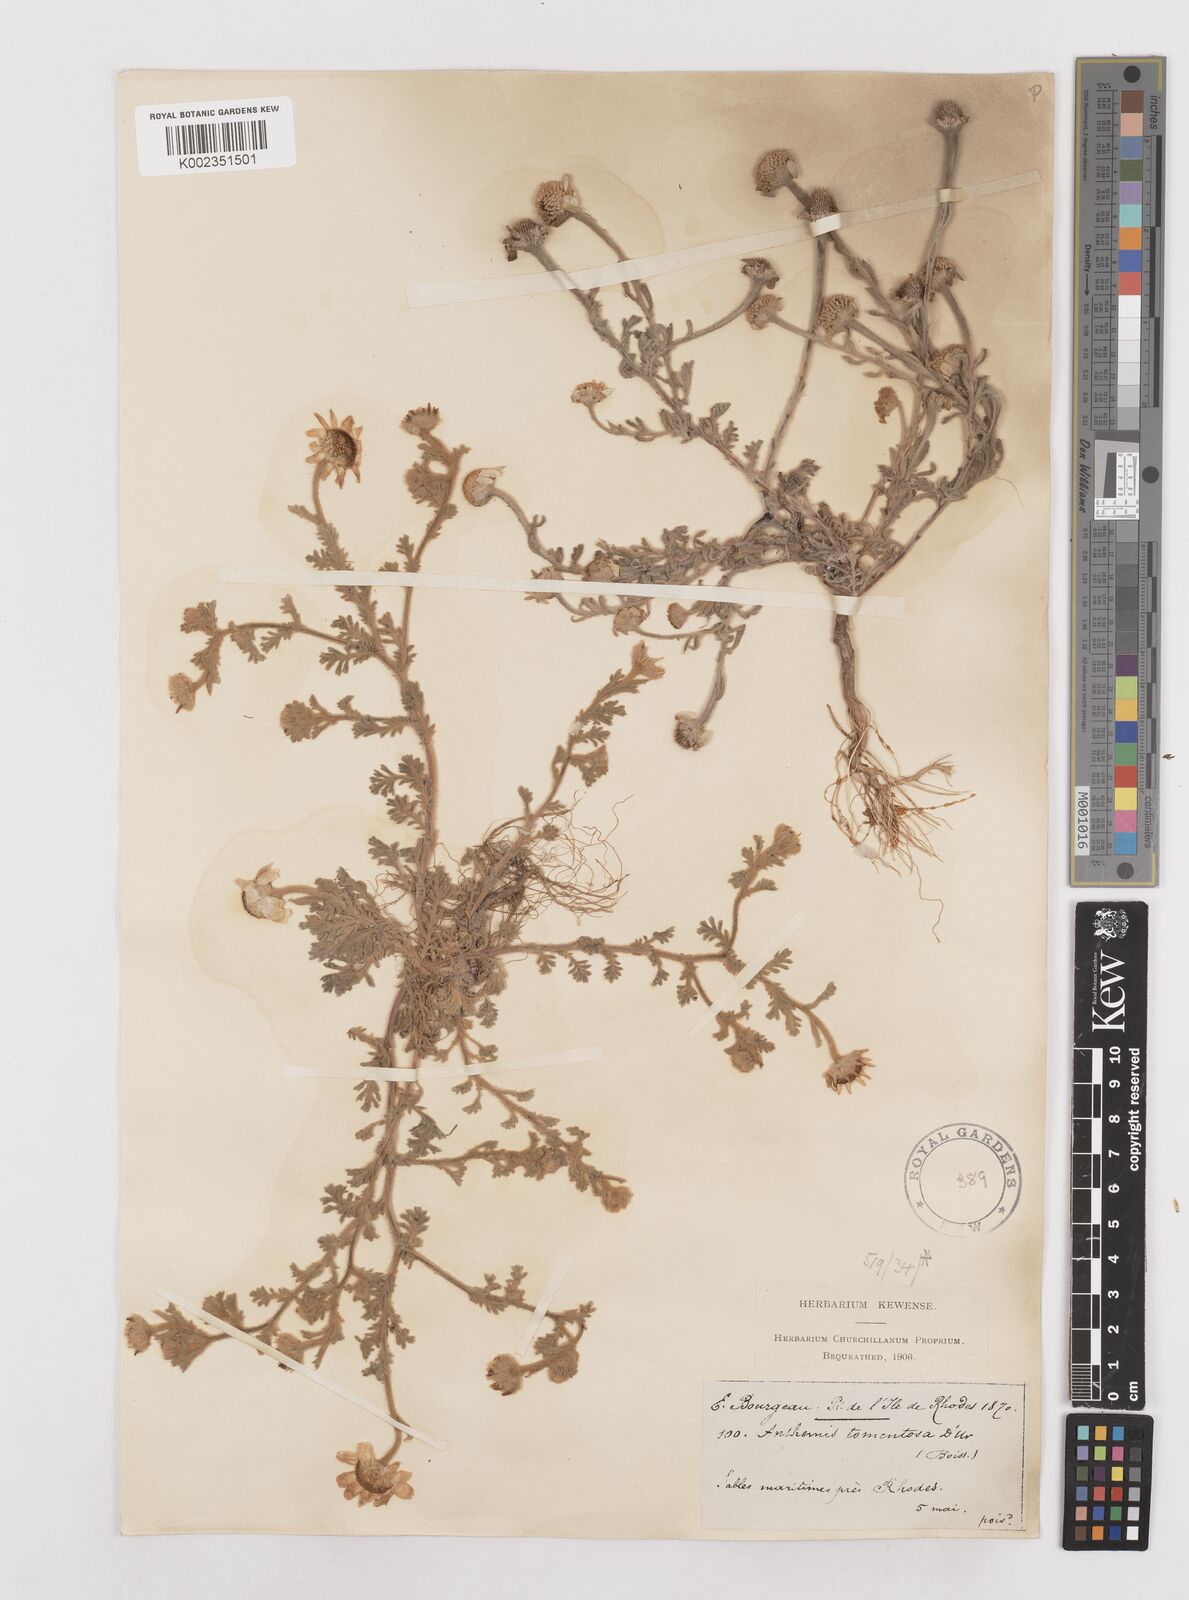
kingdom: Plantae
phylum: Tracheophyta
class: Magnoliopsida
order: Asterales
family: Asteraceae
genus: Anthemis
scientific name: Anthemis tomentosa
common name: Woolly chamomile
